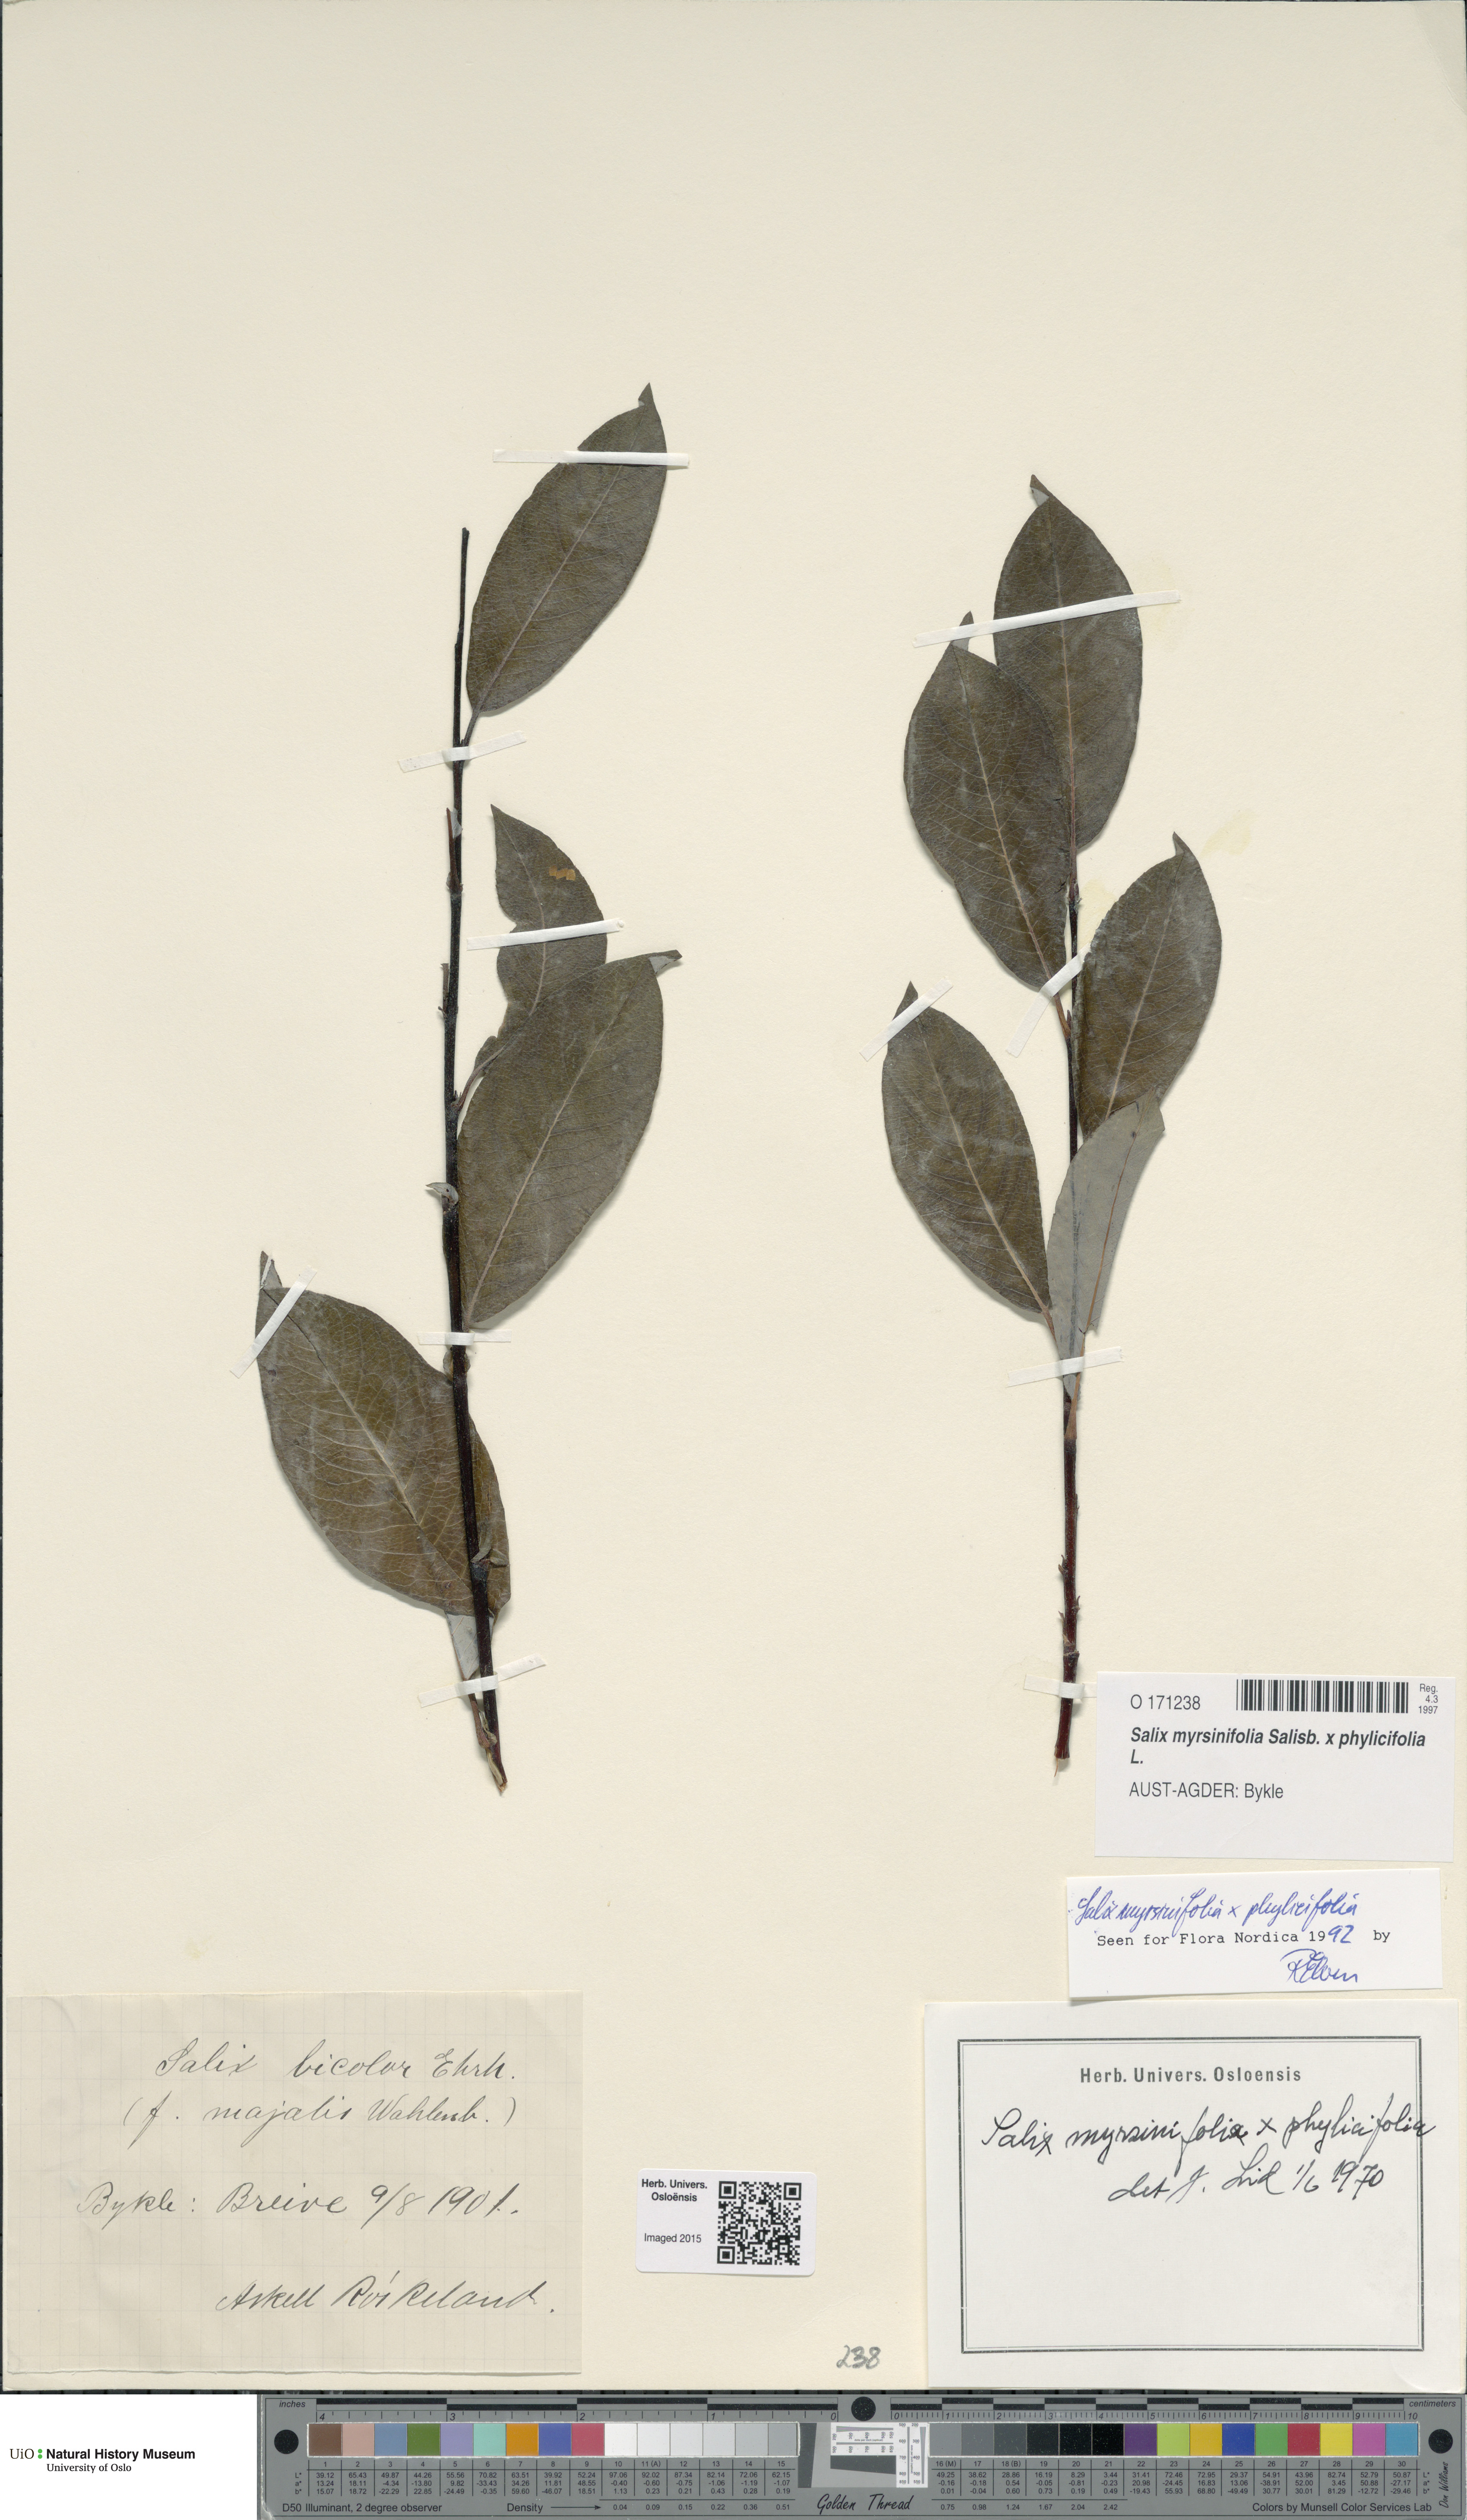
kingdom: Plantae
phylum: Tracheophyta
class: Magnoliopsida
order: Malpighiales
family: Salicaceae
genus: Salix
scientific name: Salix
